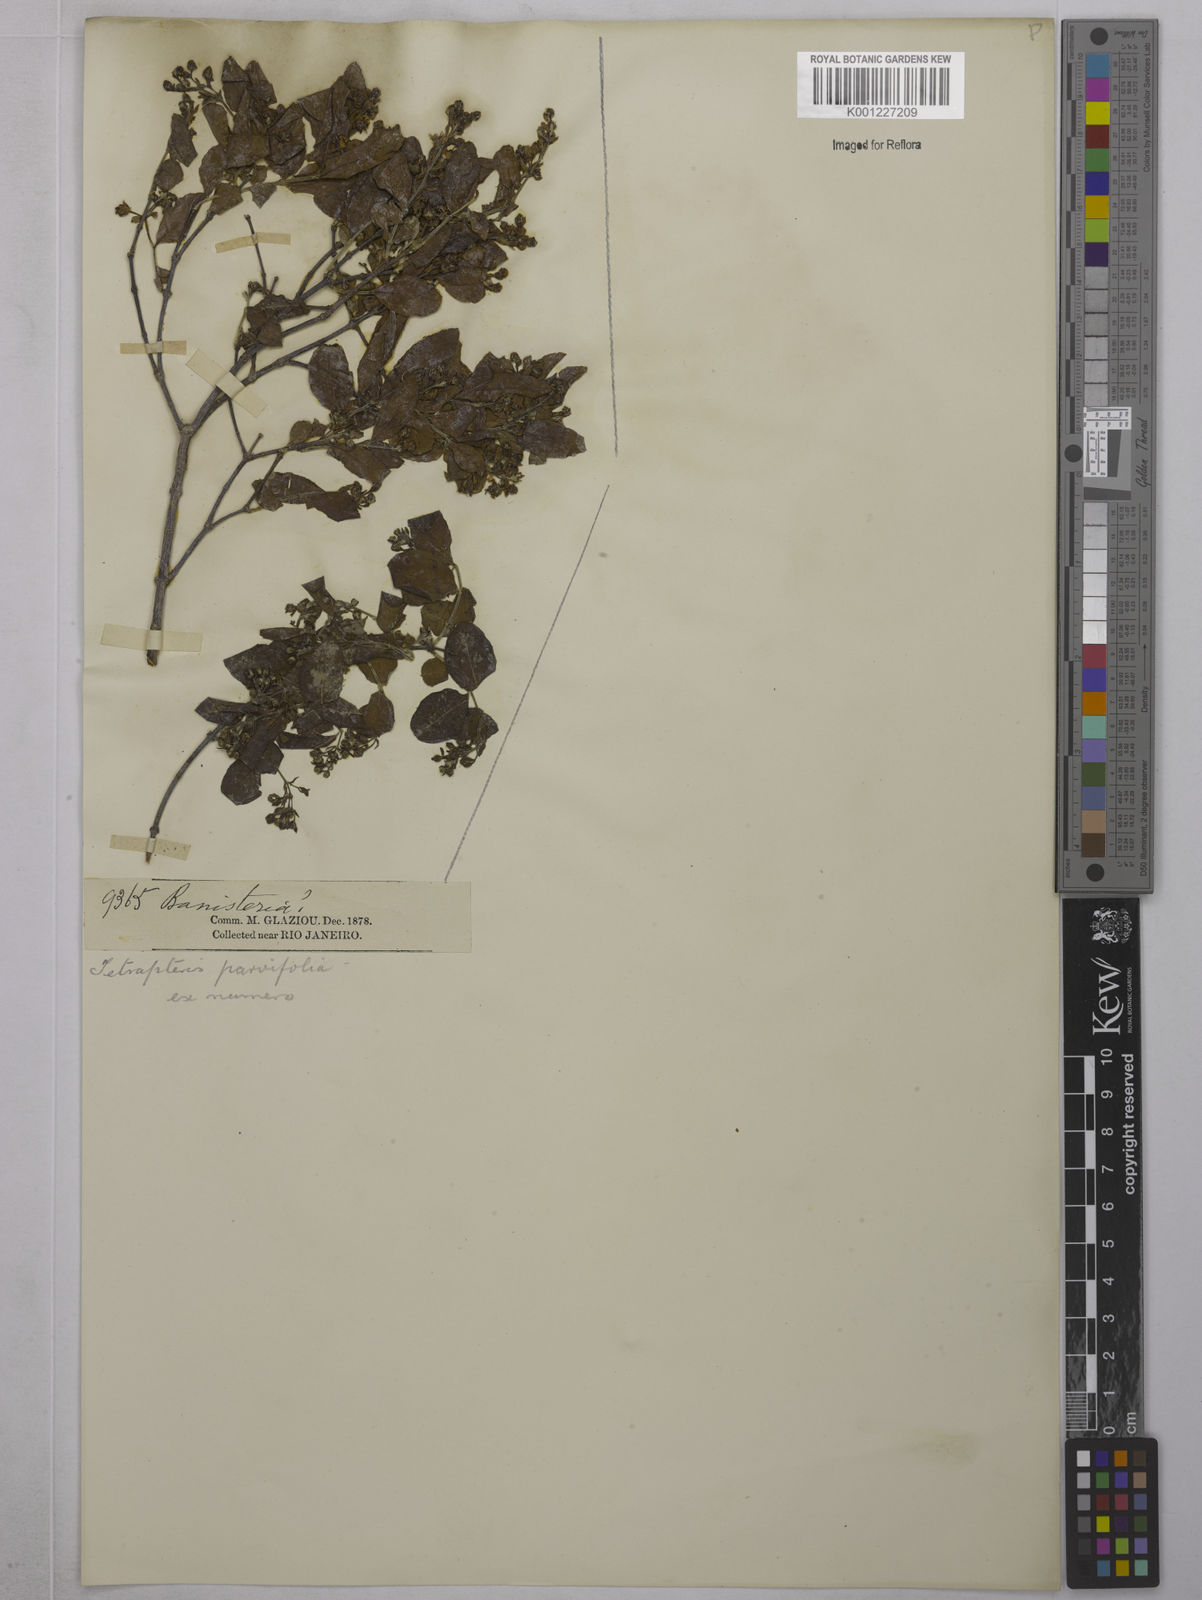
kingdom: Plantae
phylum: Tracheophyta
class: Magnoliopsida
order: Malpighiales
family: Malpighiaceae
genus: Glicophyllum
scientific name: Glicophyllum longibracteatum
